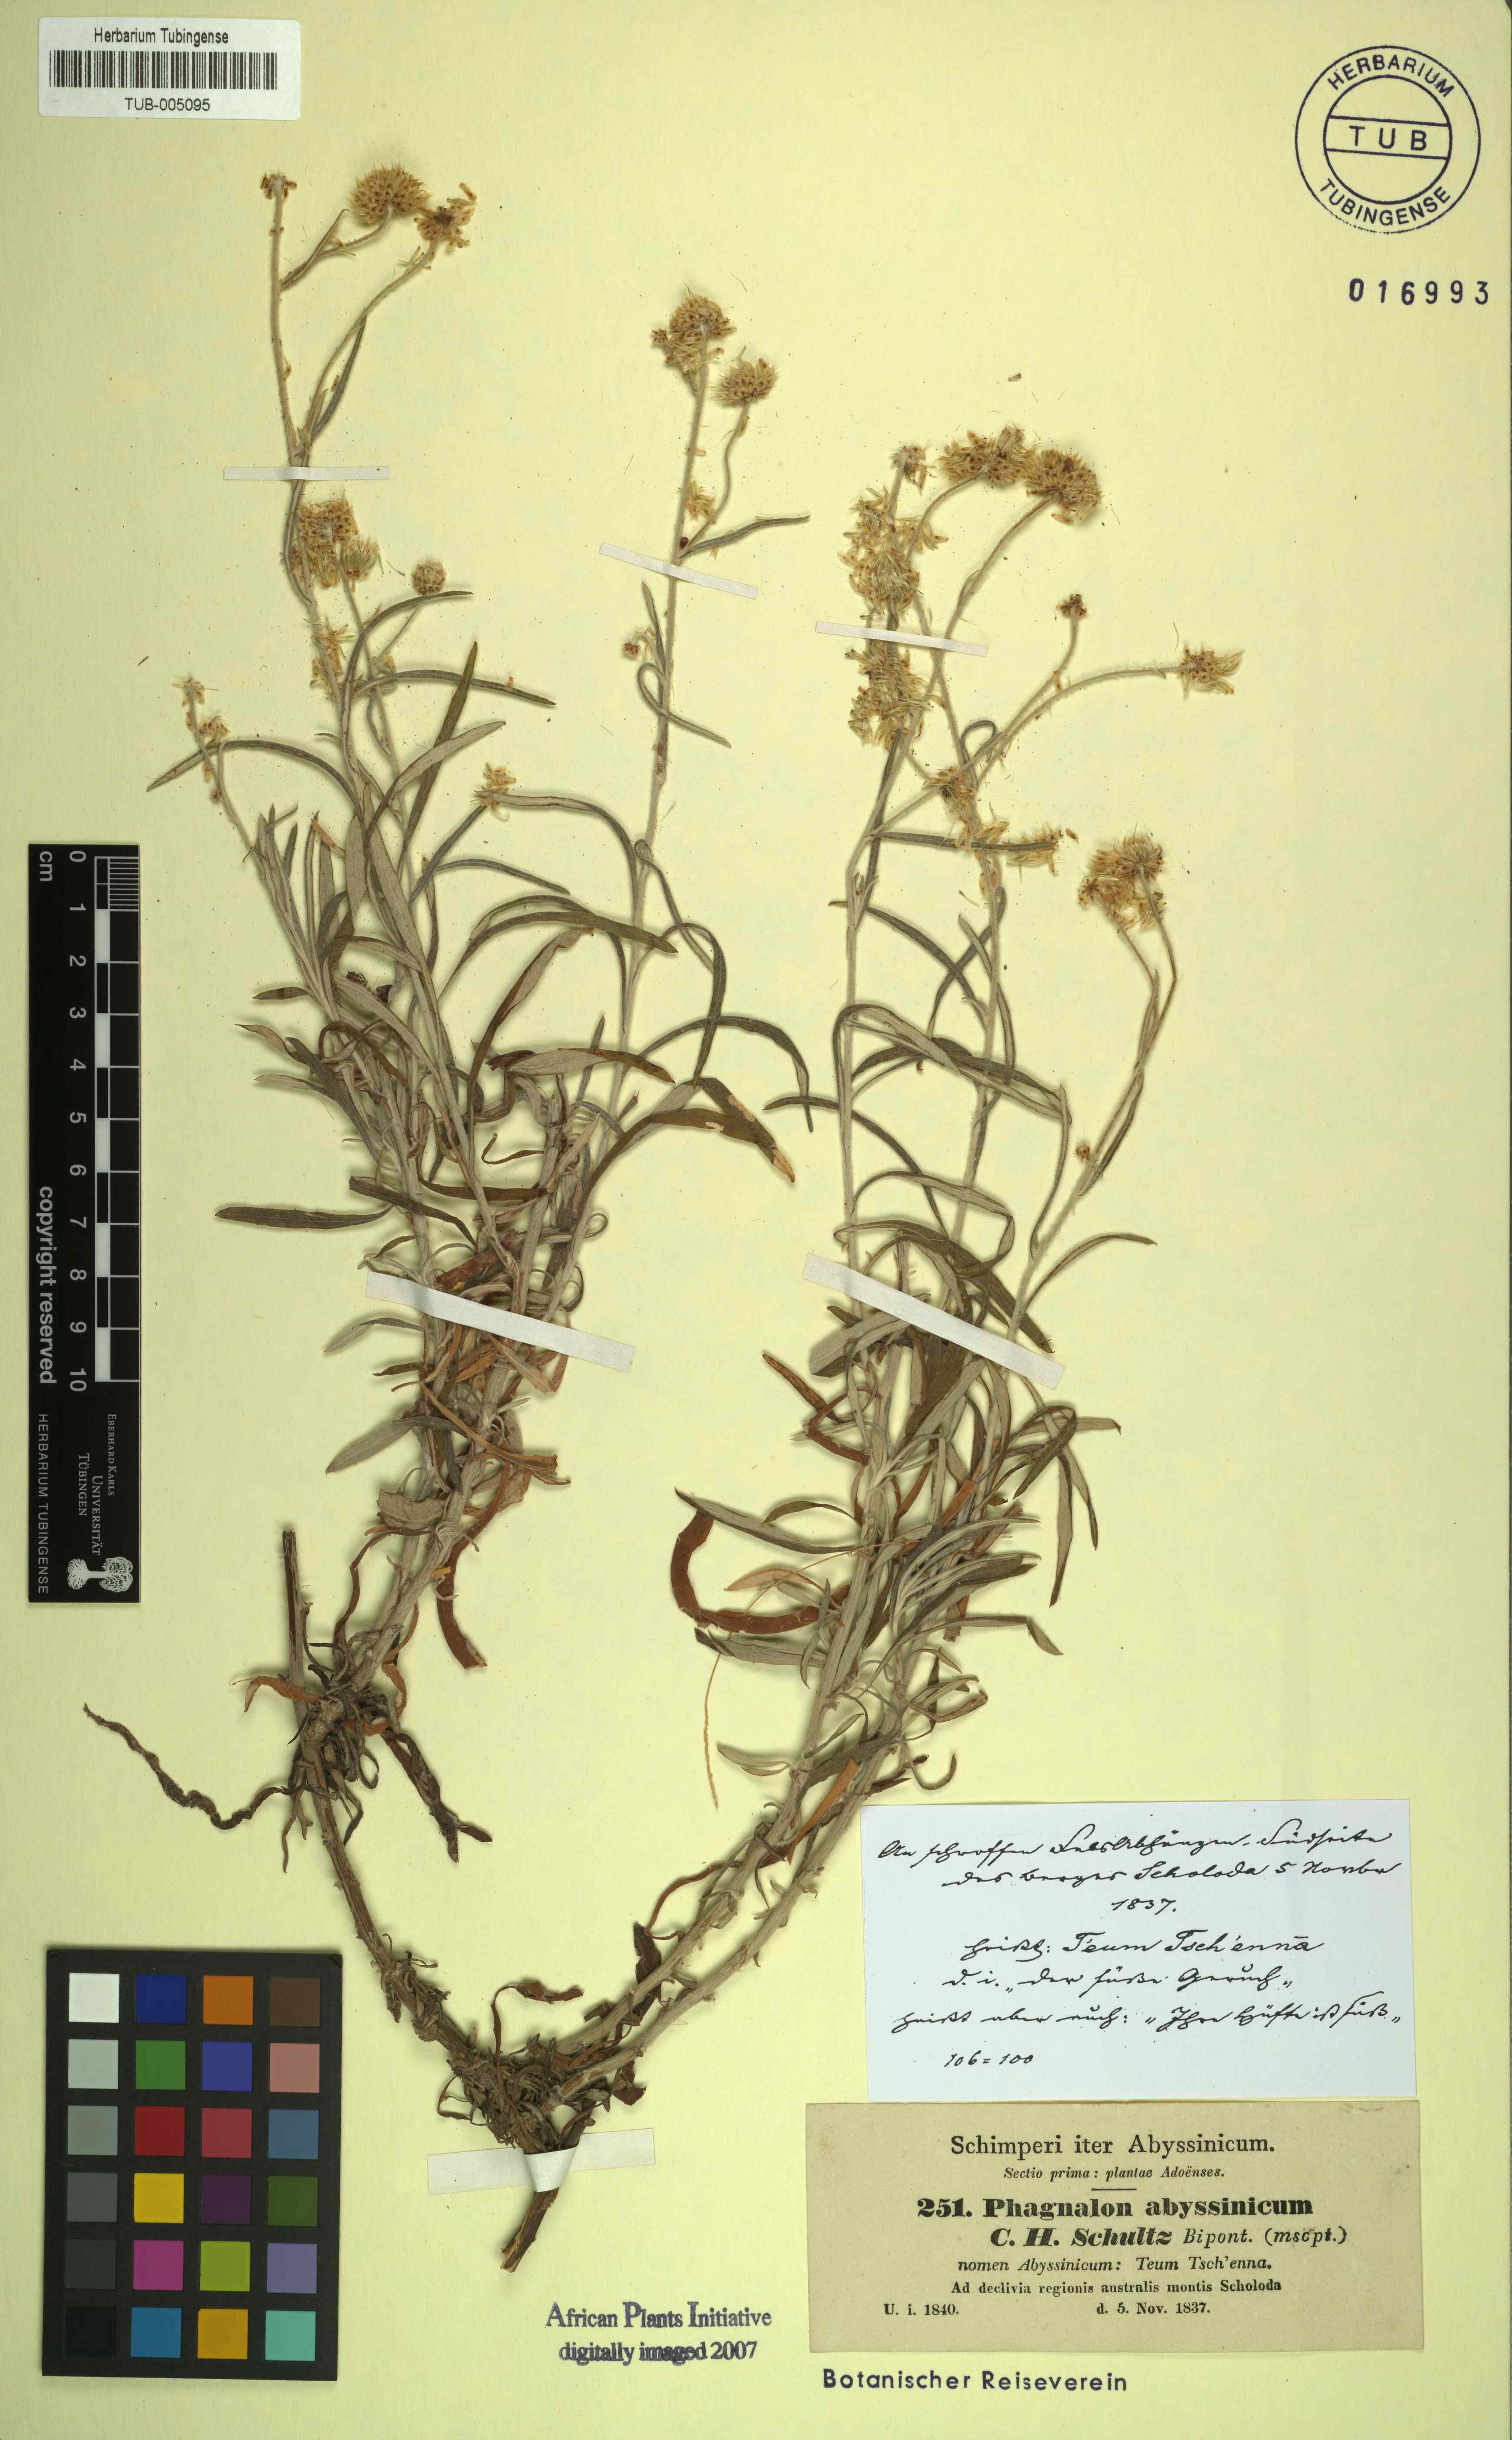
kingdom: Plantae
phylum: Tracheophyta
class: Magnoliopsida
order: Asterales
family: Asteraceae
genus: Phagnalon
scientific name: Phagnalon abyssinicum
